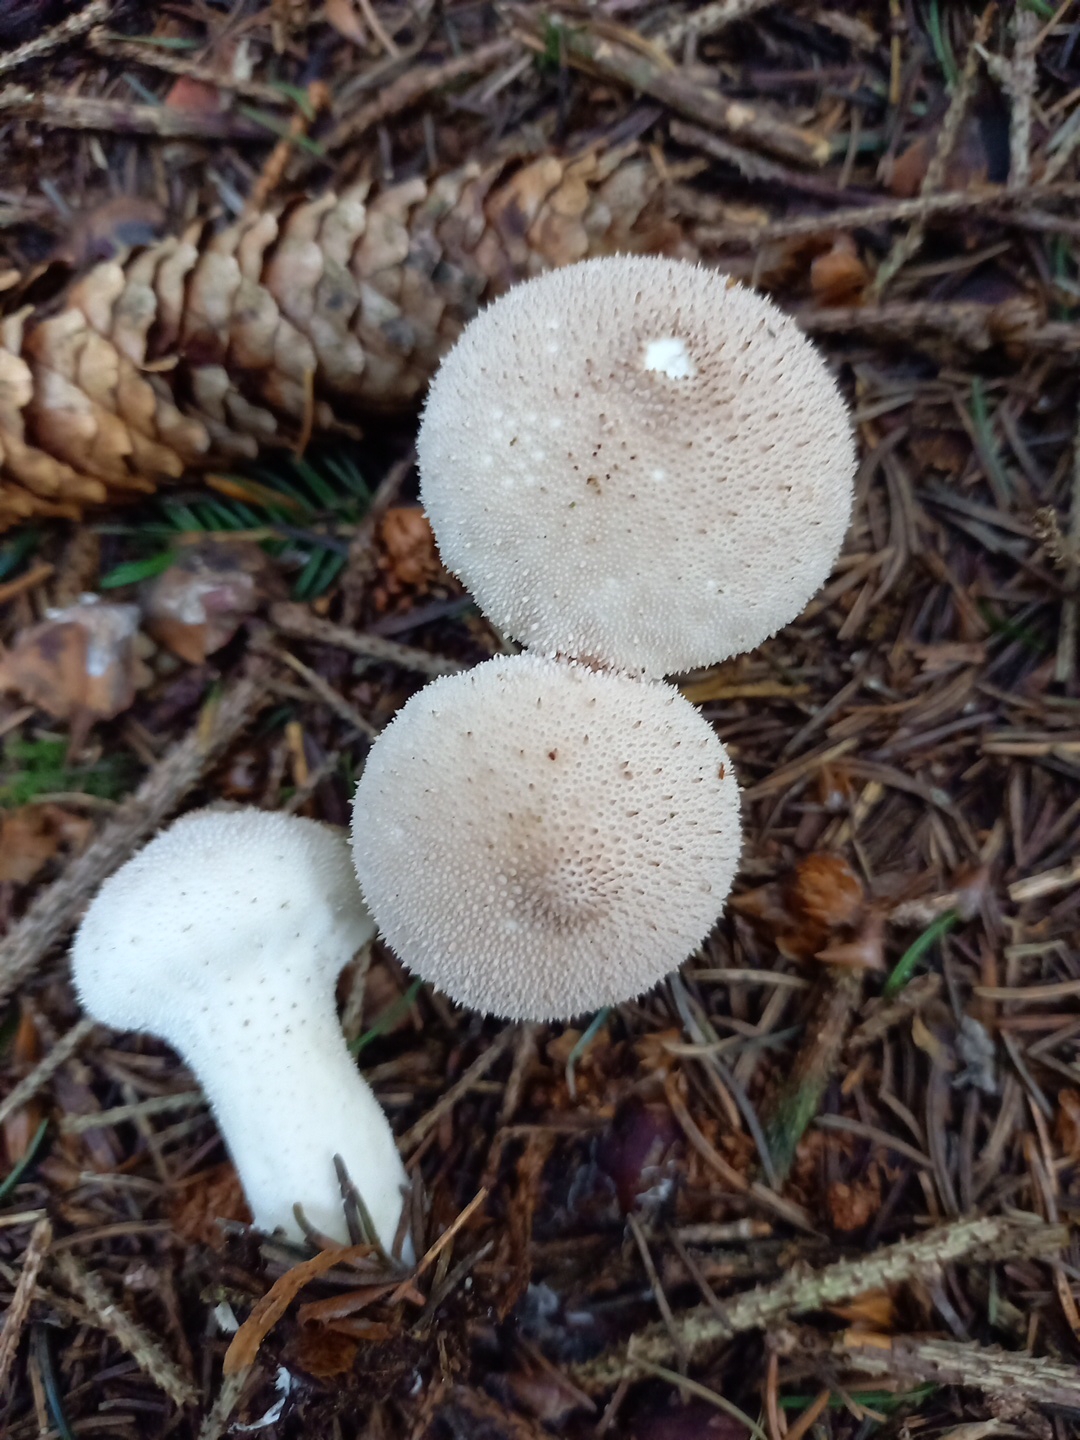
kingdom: Fungi
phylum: Basidiomycota
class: Agaricomycetes
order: Agaricales
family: Lycoperdaceae
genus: Lycoperdon
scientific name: Lycoperdon perlatum
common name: krystal-støvbold
